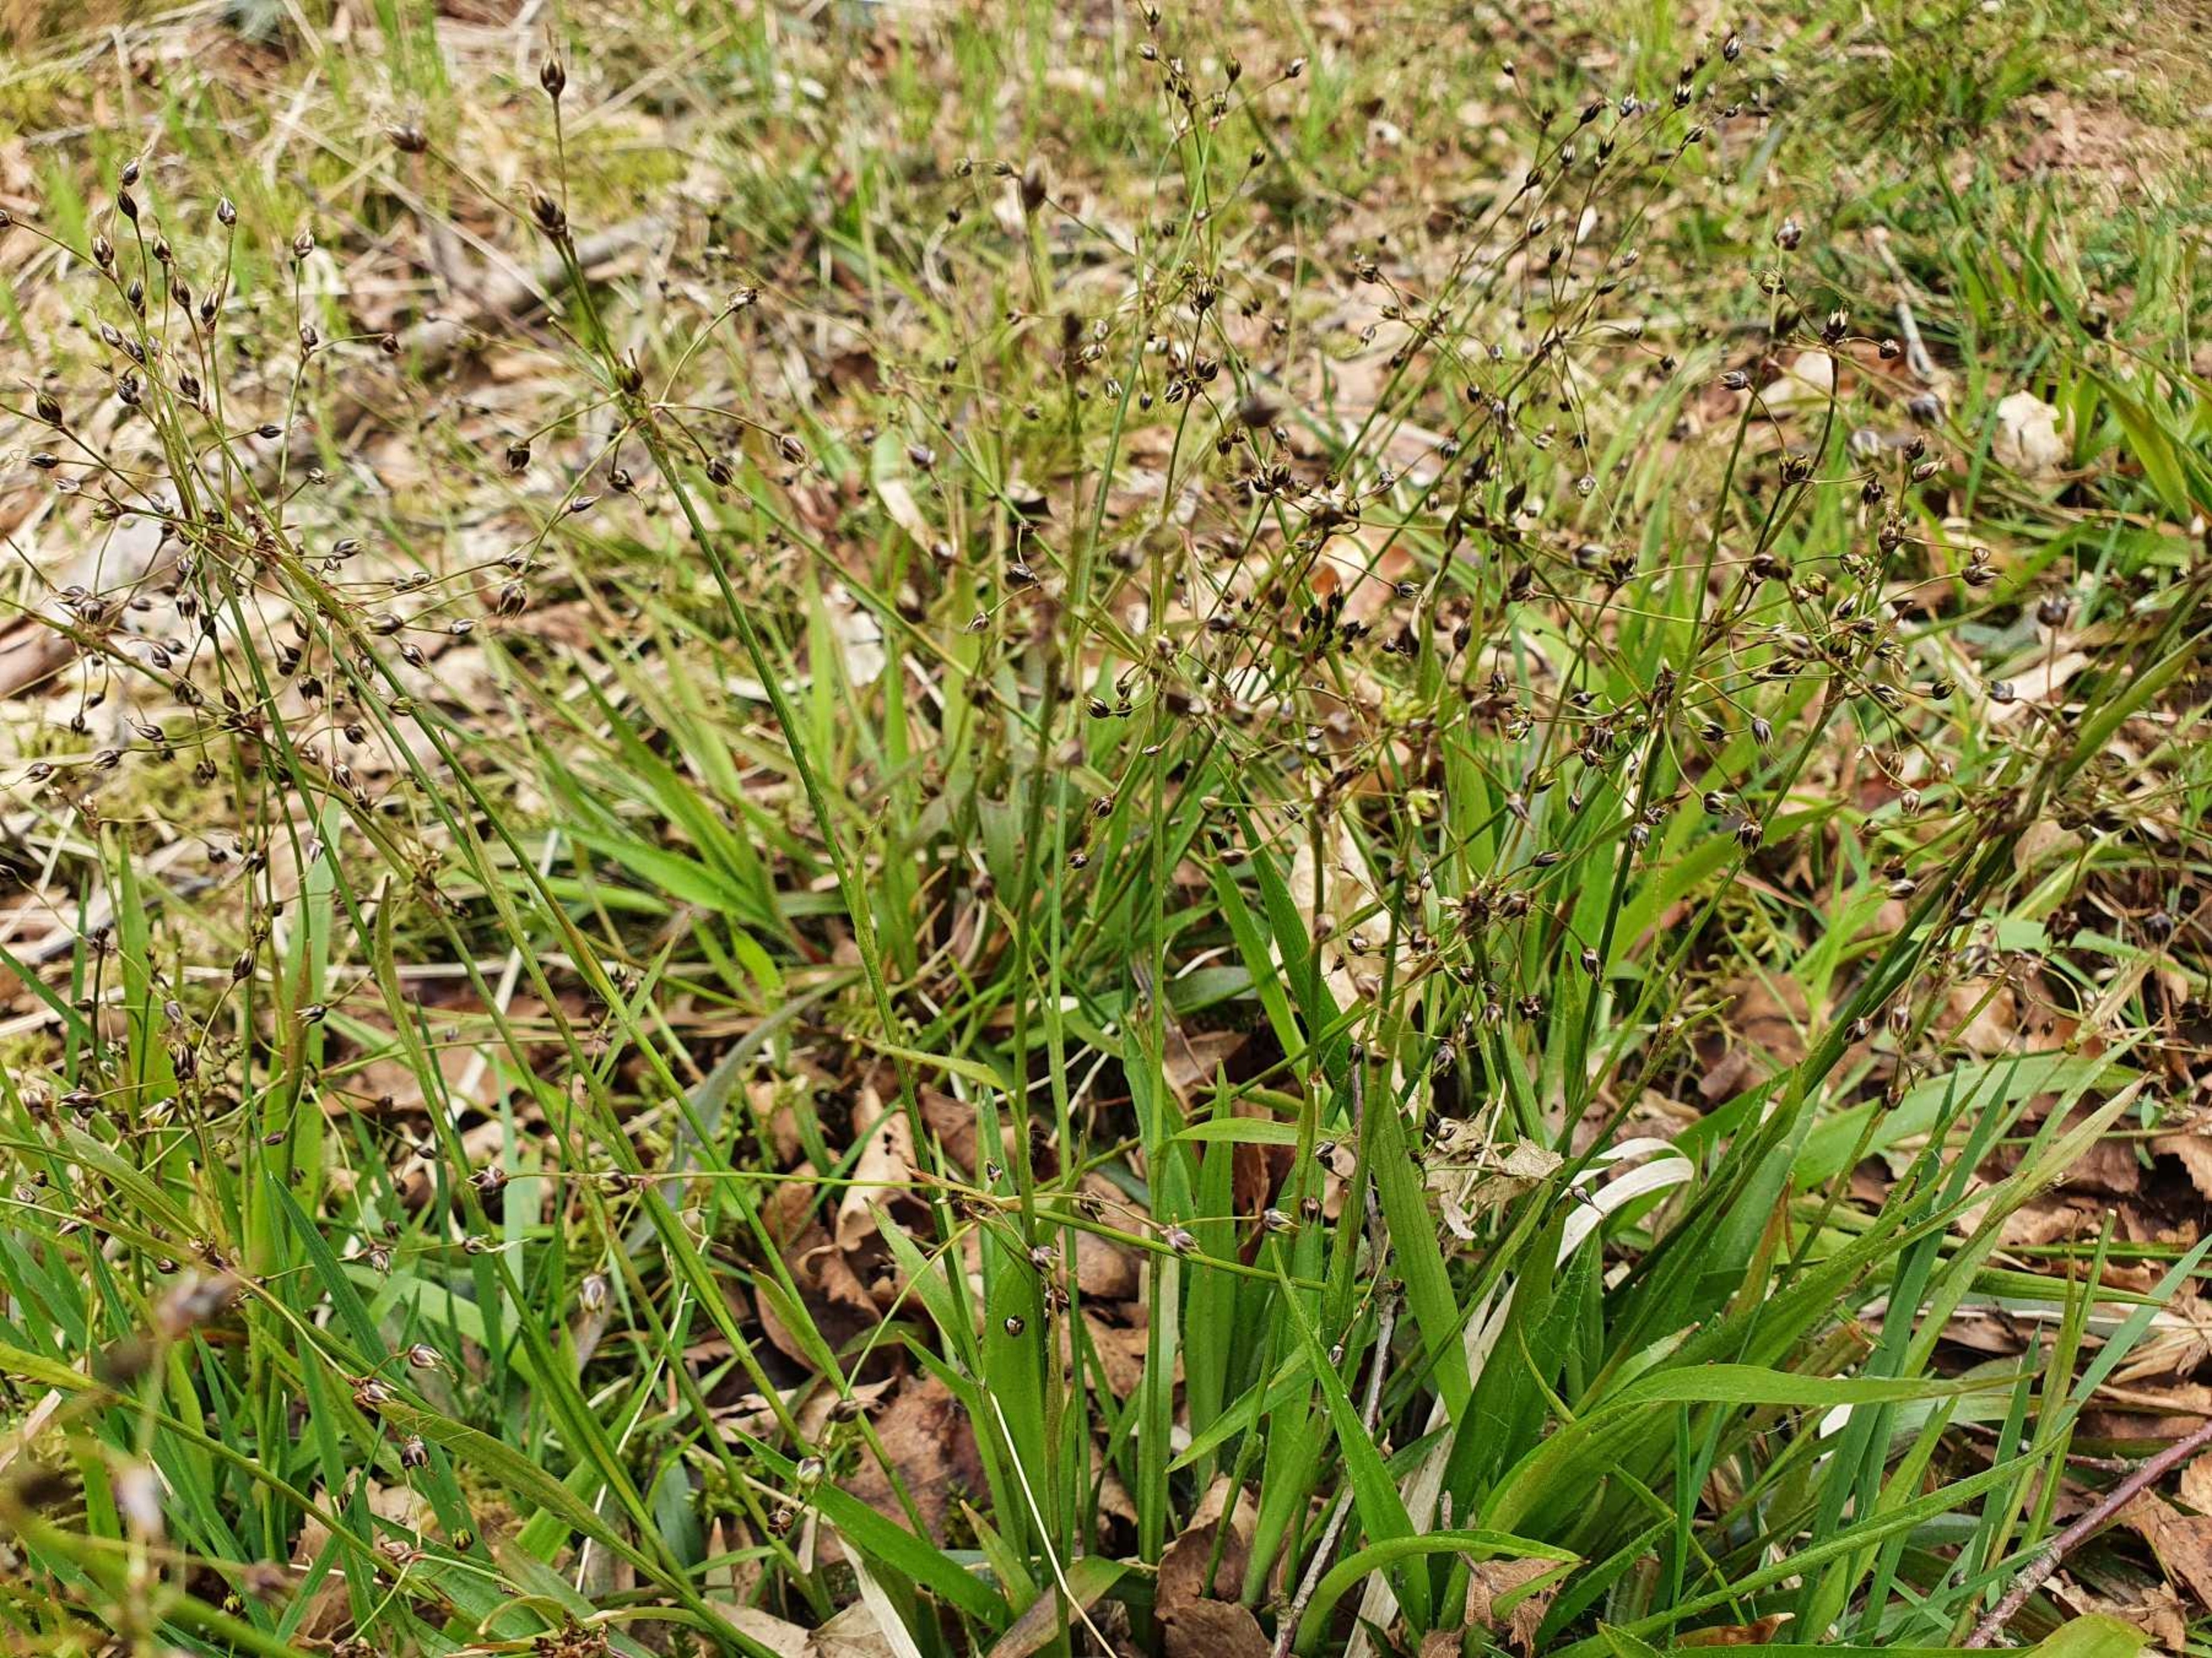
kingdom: Plantae
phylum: Tracheophyta
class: Liliopsida
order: Poales
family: Juncaceae
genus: Luzula
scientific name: Luzula pilosa
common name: Håret frytle
